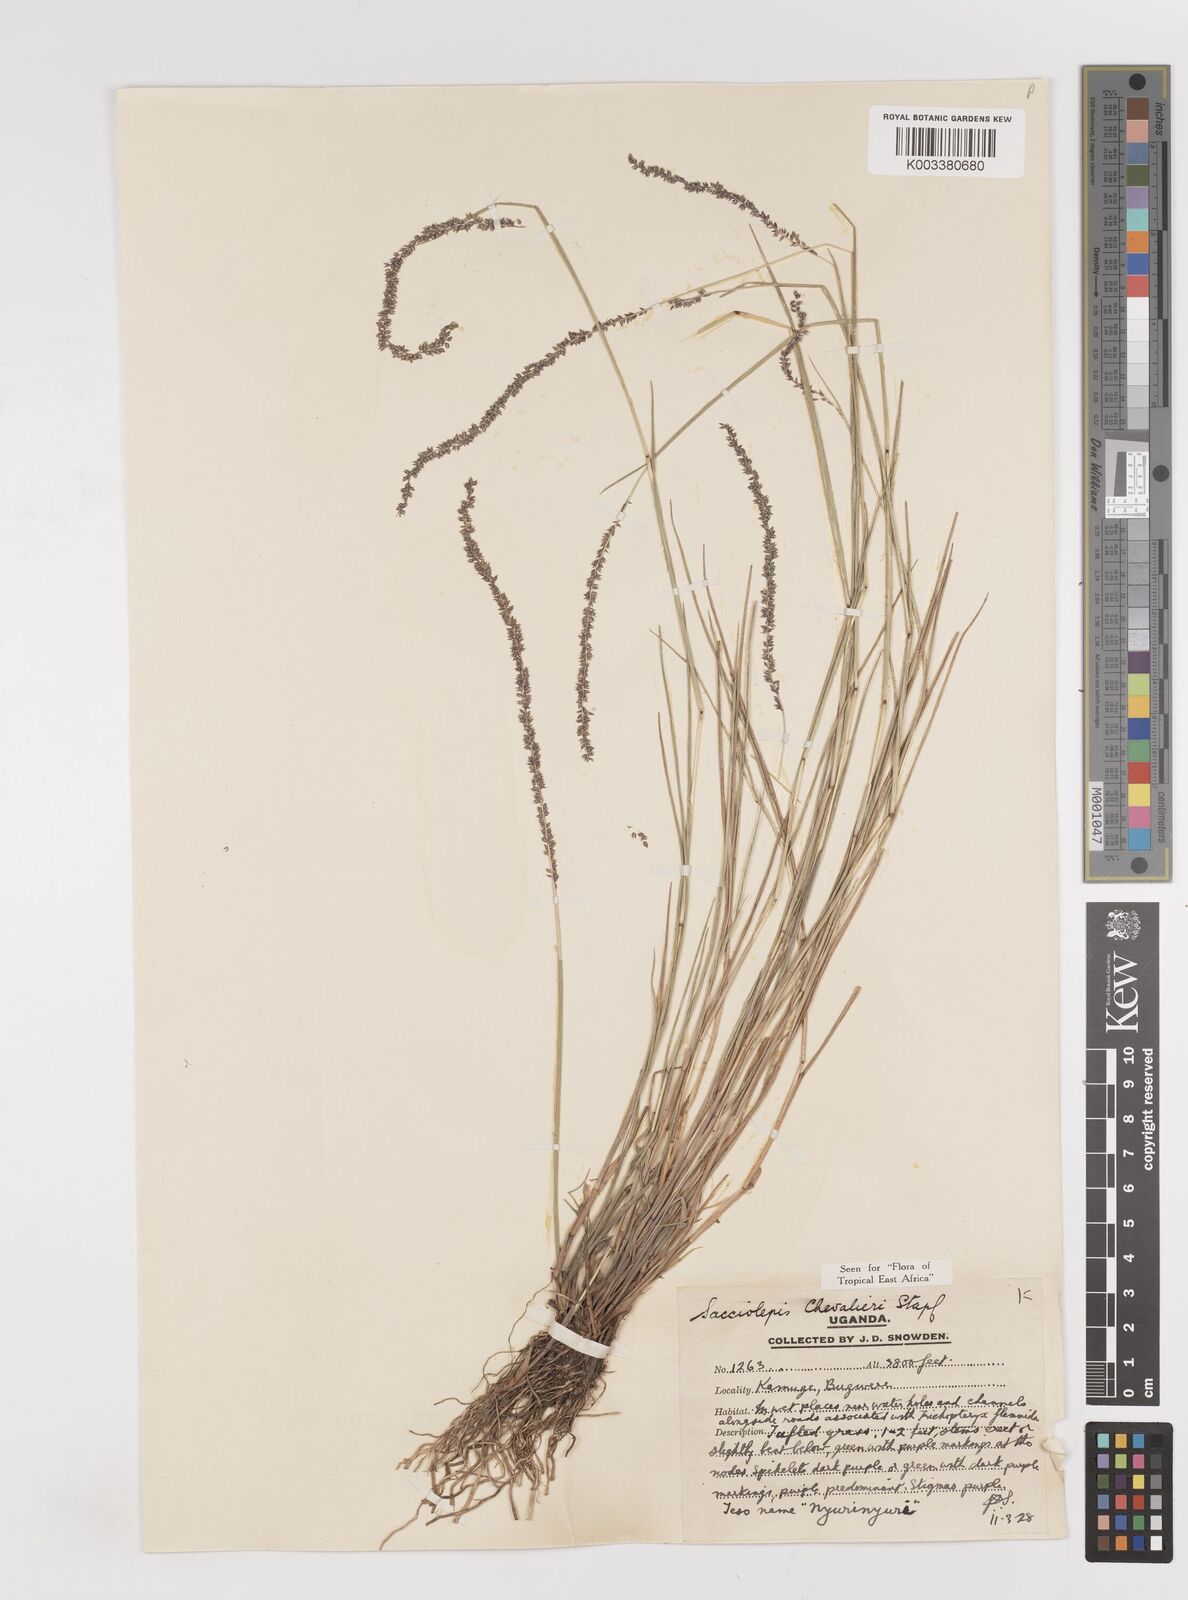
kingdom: Plantae
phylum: Tracheophyta
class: Liliopsida
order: Poales
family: Poaceae
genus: Sacciolepis
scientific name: Sacciolepis chevalieri
